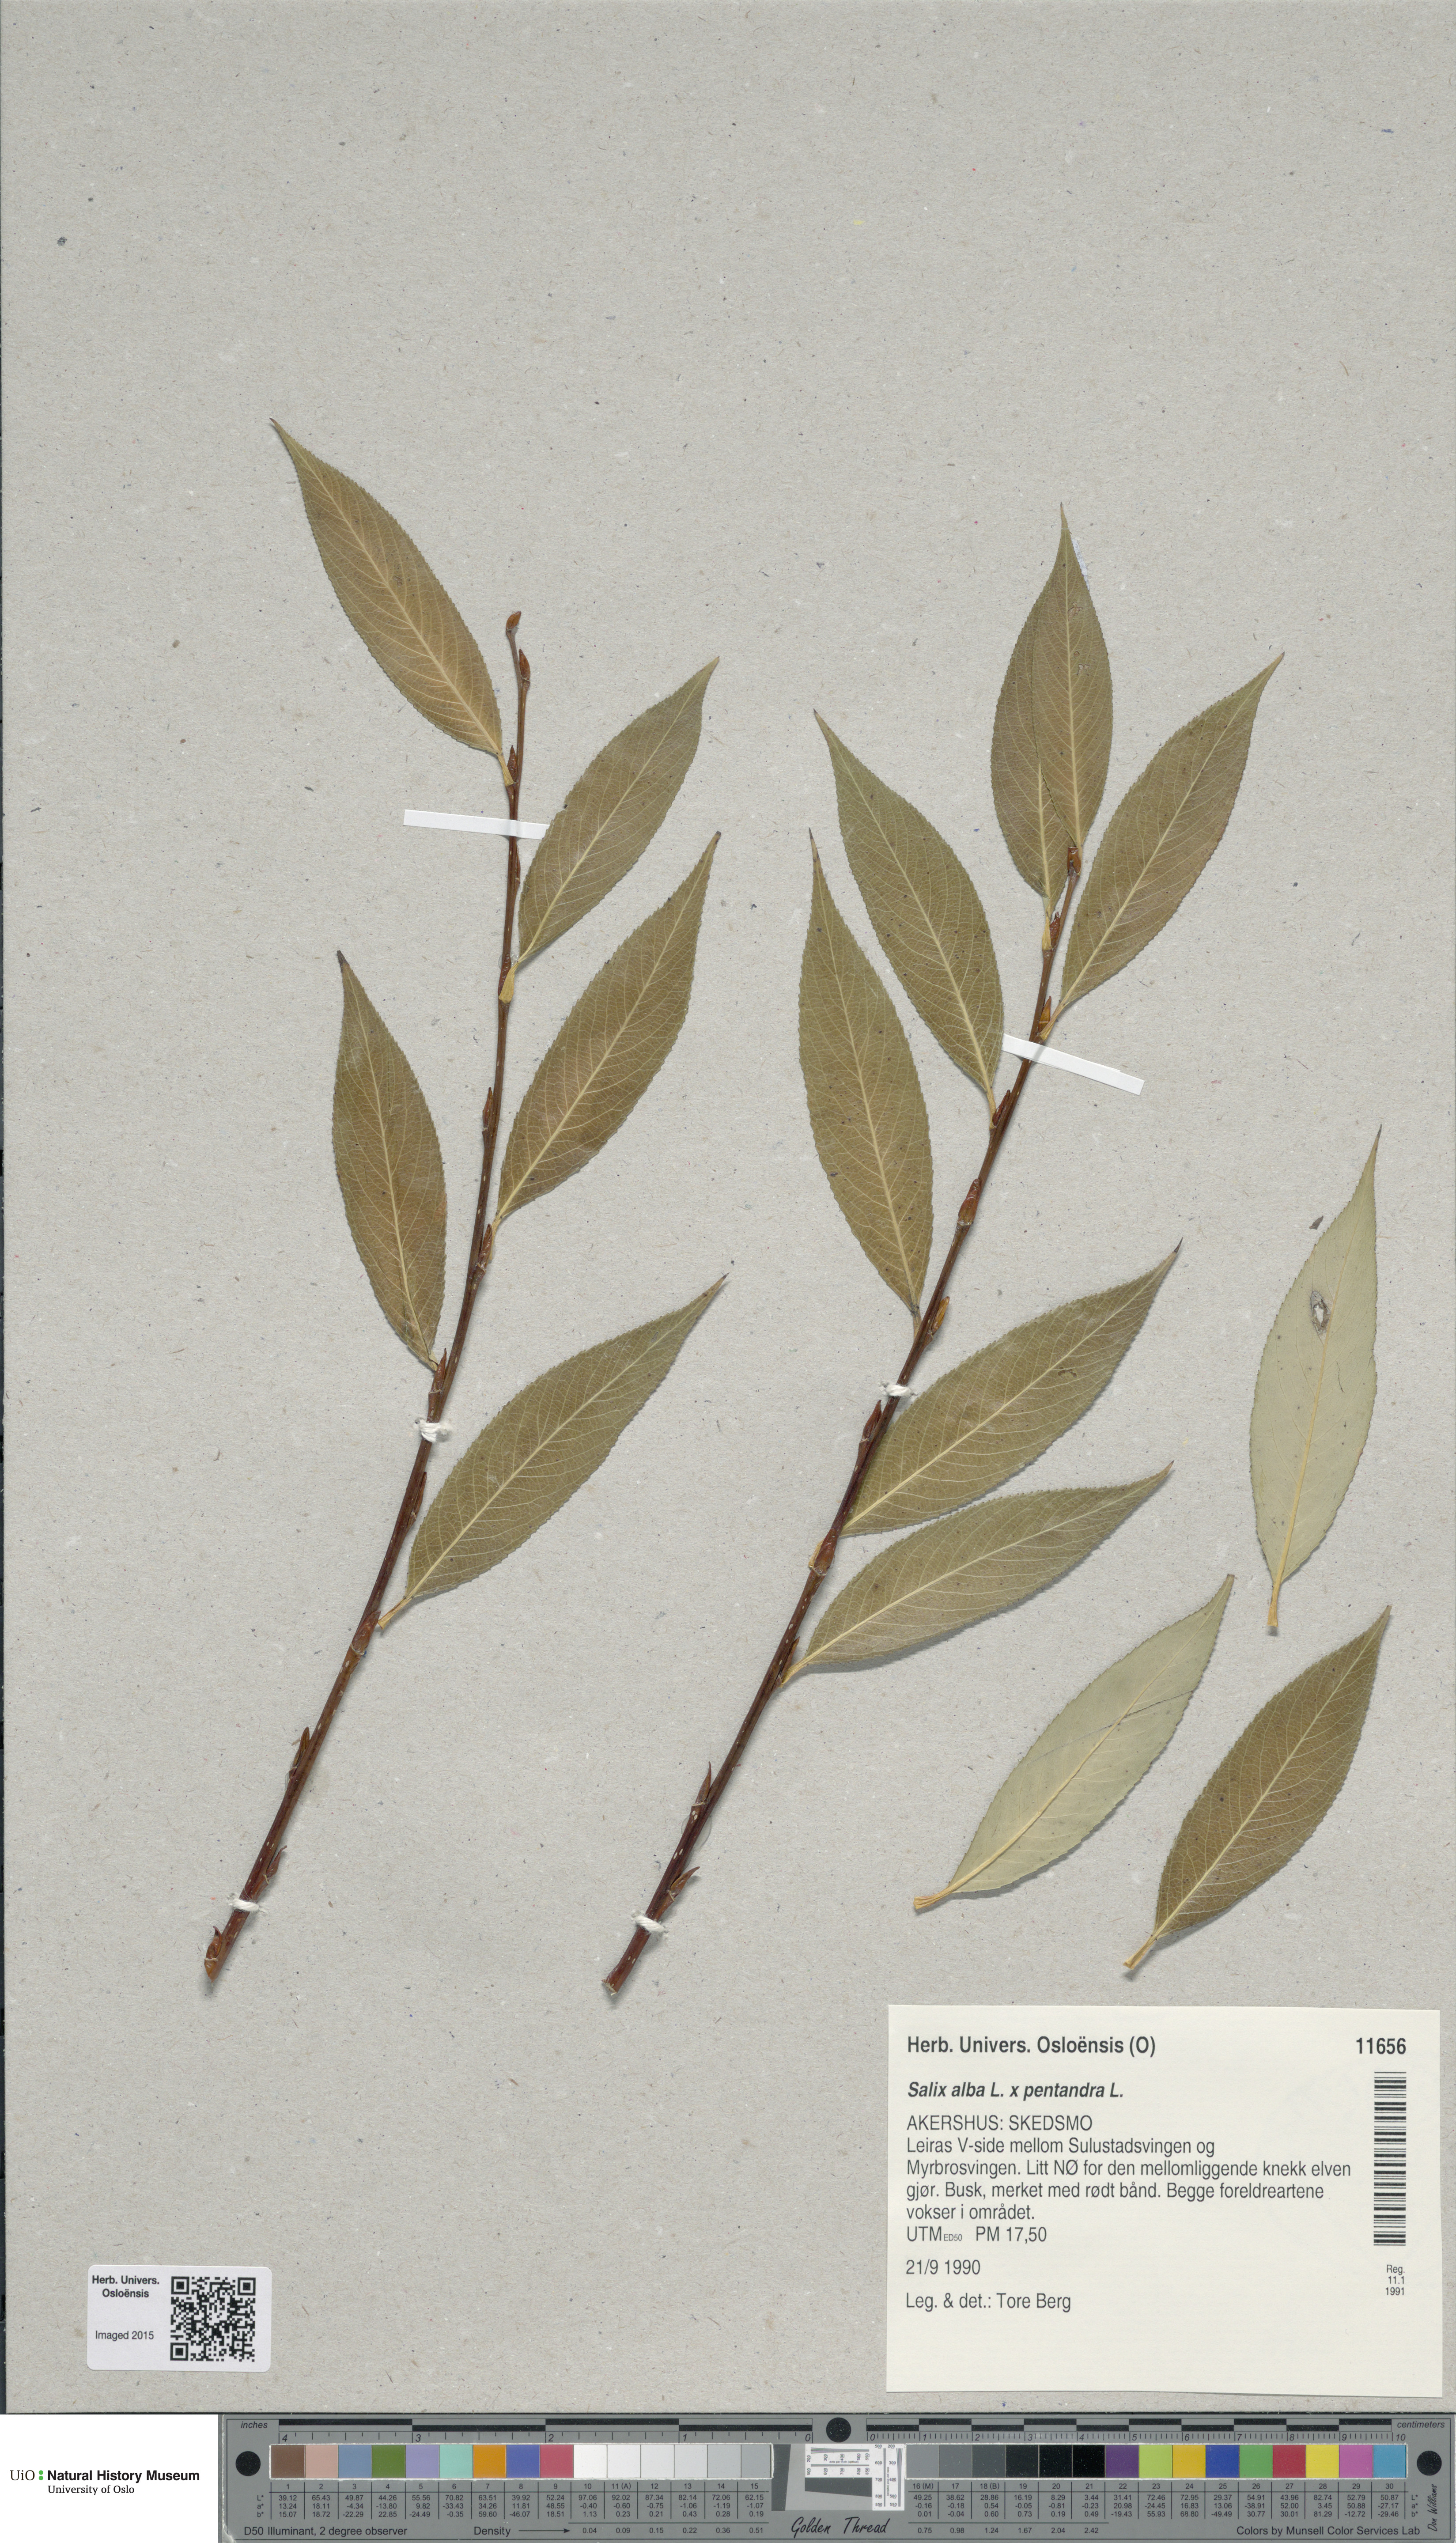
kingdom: Plantae
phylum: Tracheophyta
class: Magnoliopsida
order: Malpighiales
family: Salicaceae
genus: Salix
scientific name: Salix
